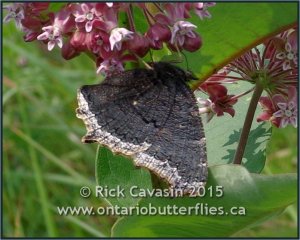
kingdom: Animalia
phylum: Arthropoda
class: Insecta
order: Lepidoptera
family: Nymphalidae
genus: Nymphalis
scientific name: Nymphalis antiopa
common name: Mourning Cloak
